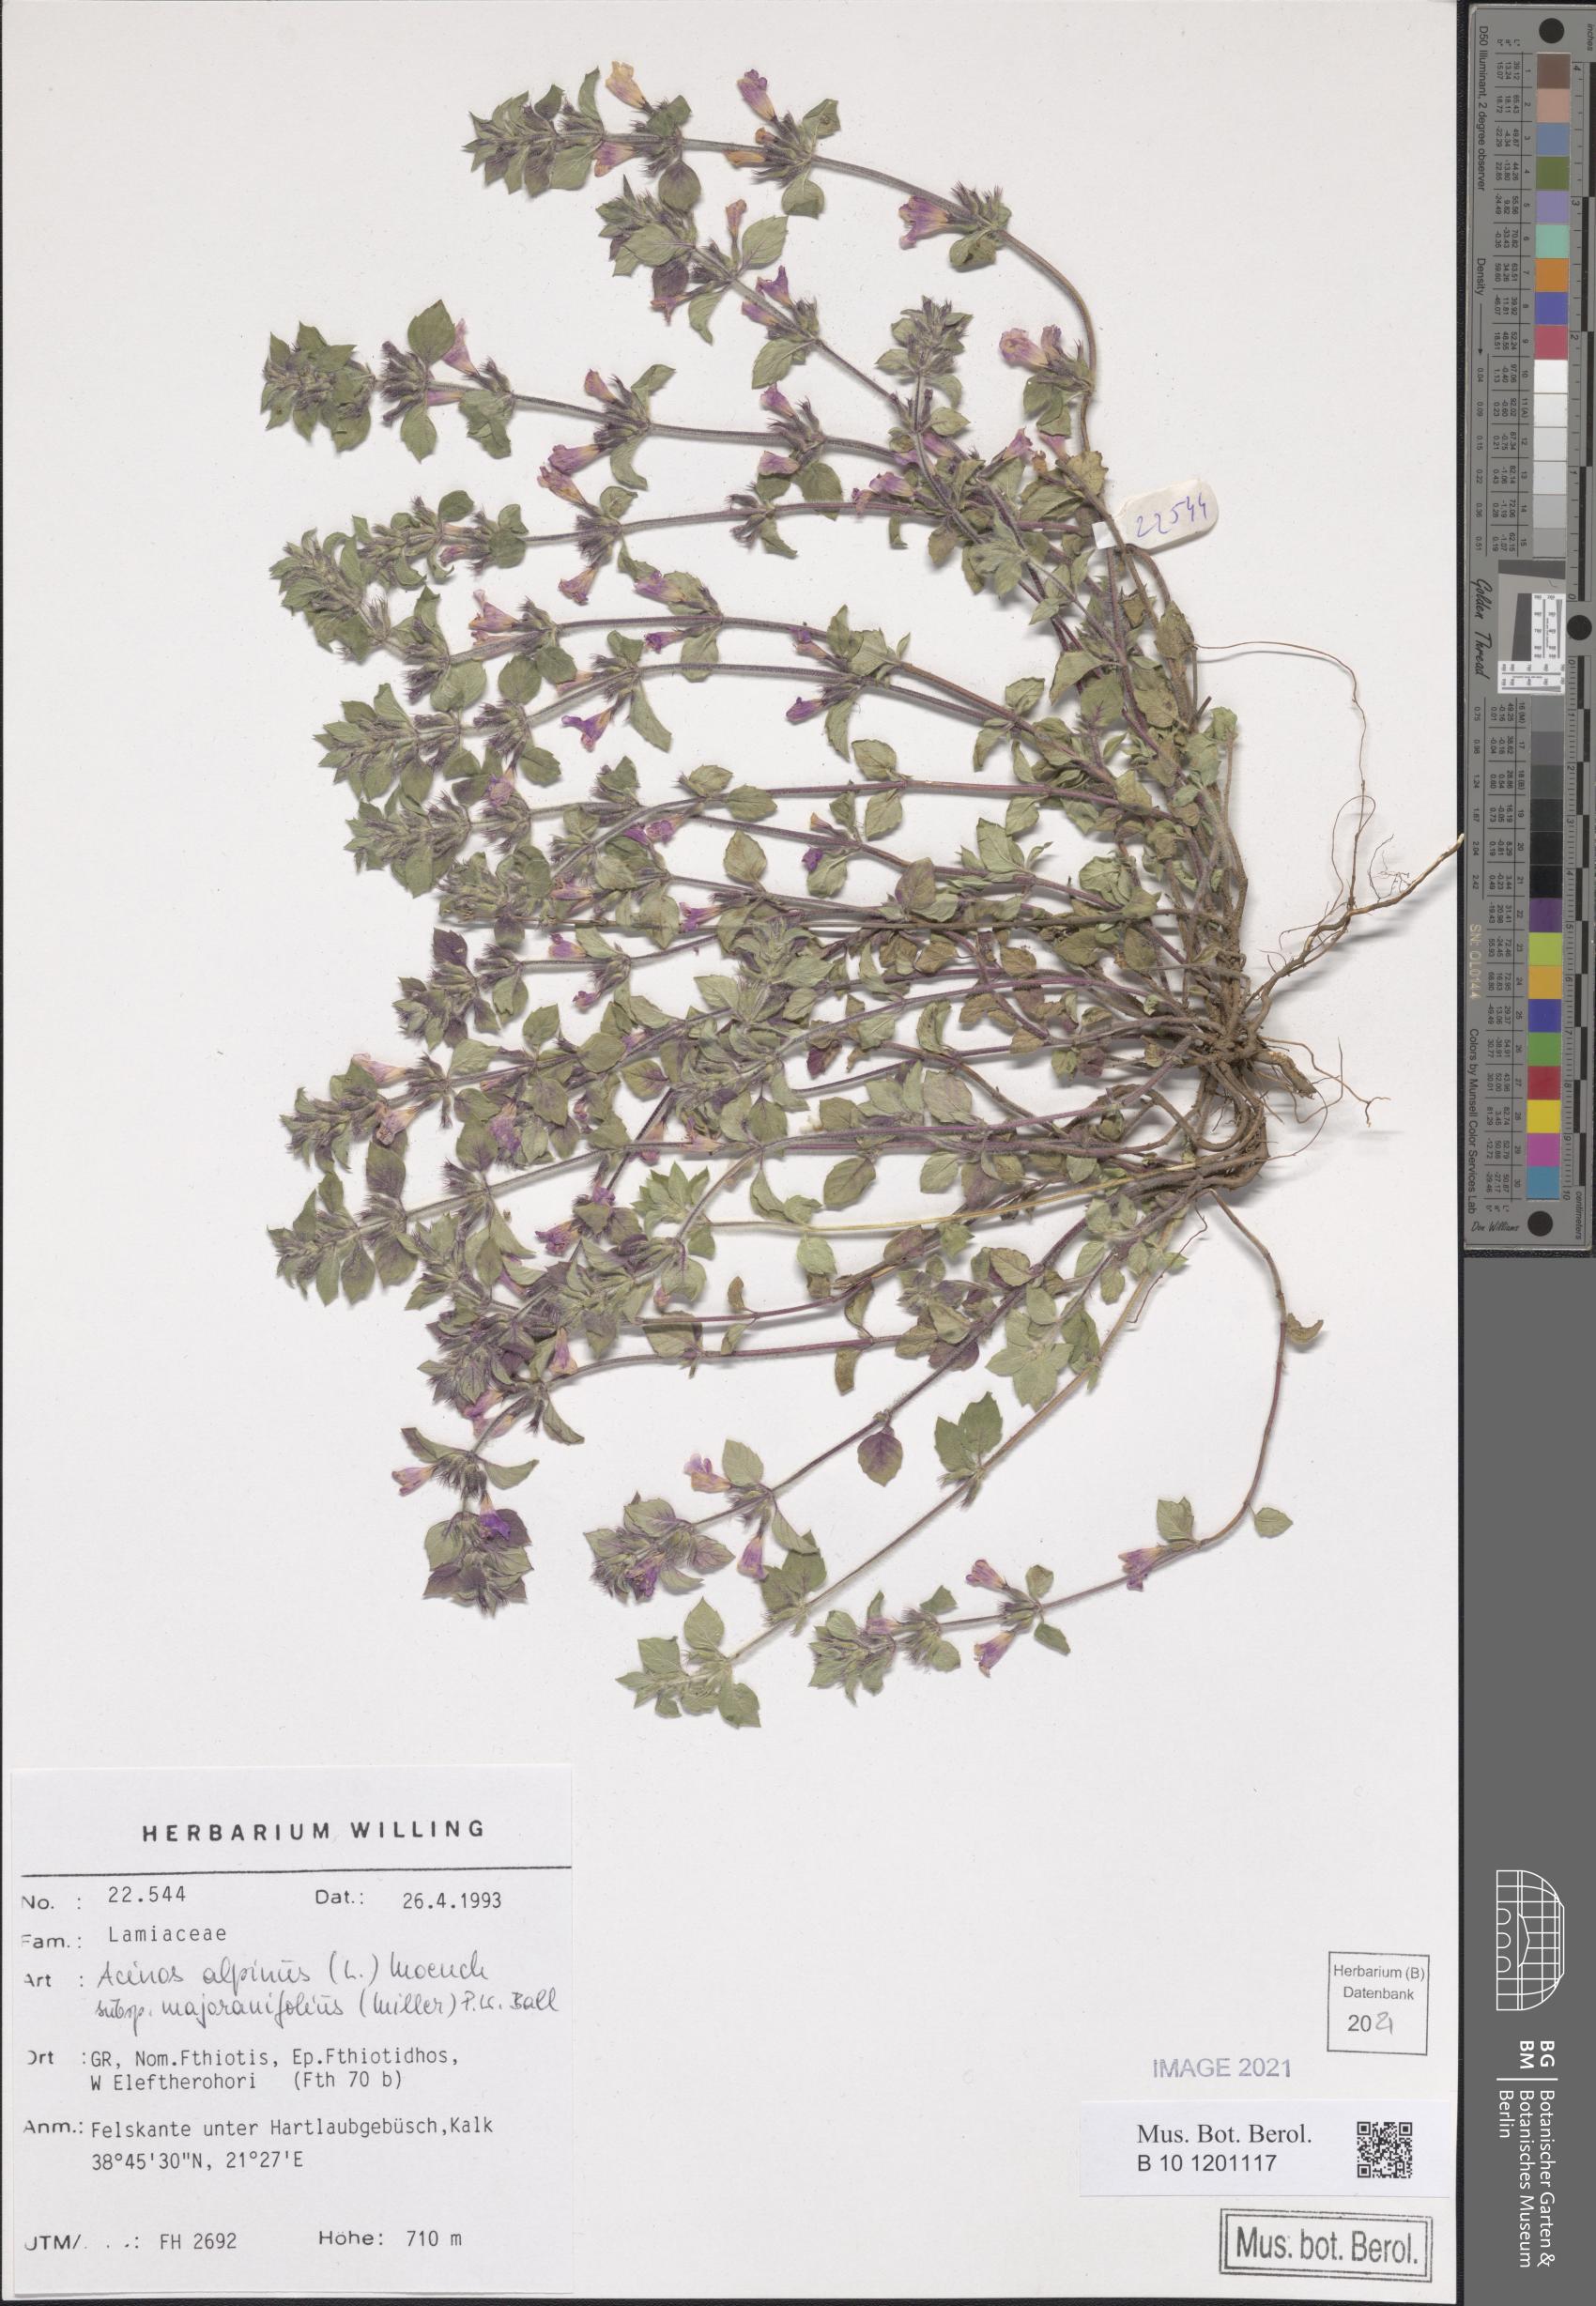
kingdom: Plantae
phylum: Tracheophyta
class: Magnoliopsida
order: Lamiales
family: Lamiaceae
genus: Clinopodium
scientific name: Clinopodium alpinum
